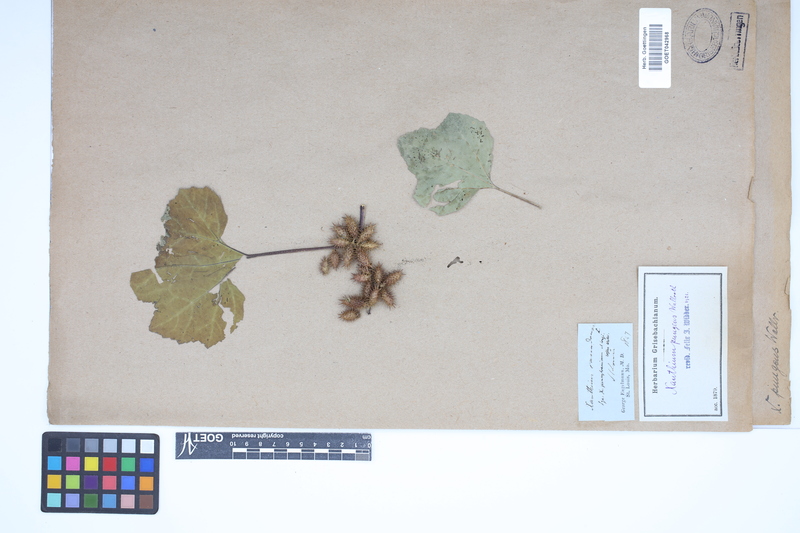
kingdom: Plantae
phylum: Tracheophyta
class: Magnoliopsida
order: Asterales
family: Asteraceae
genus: Xanthium
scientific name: Xanthium occidentale
